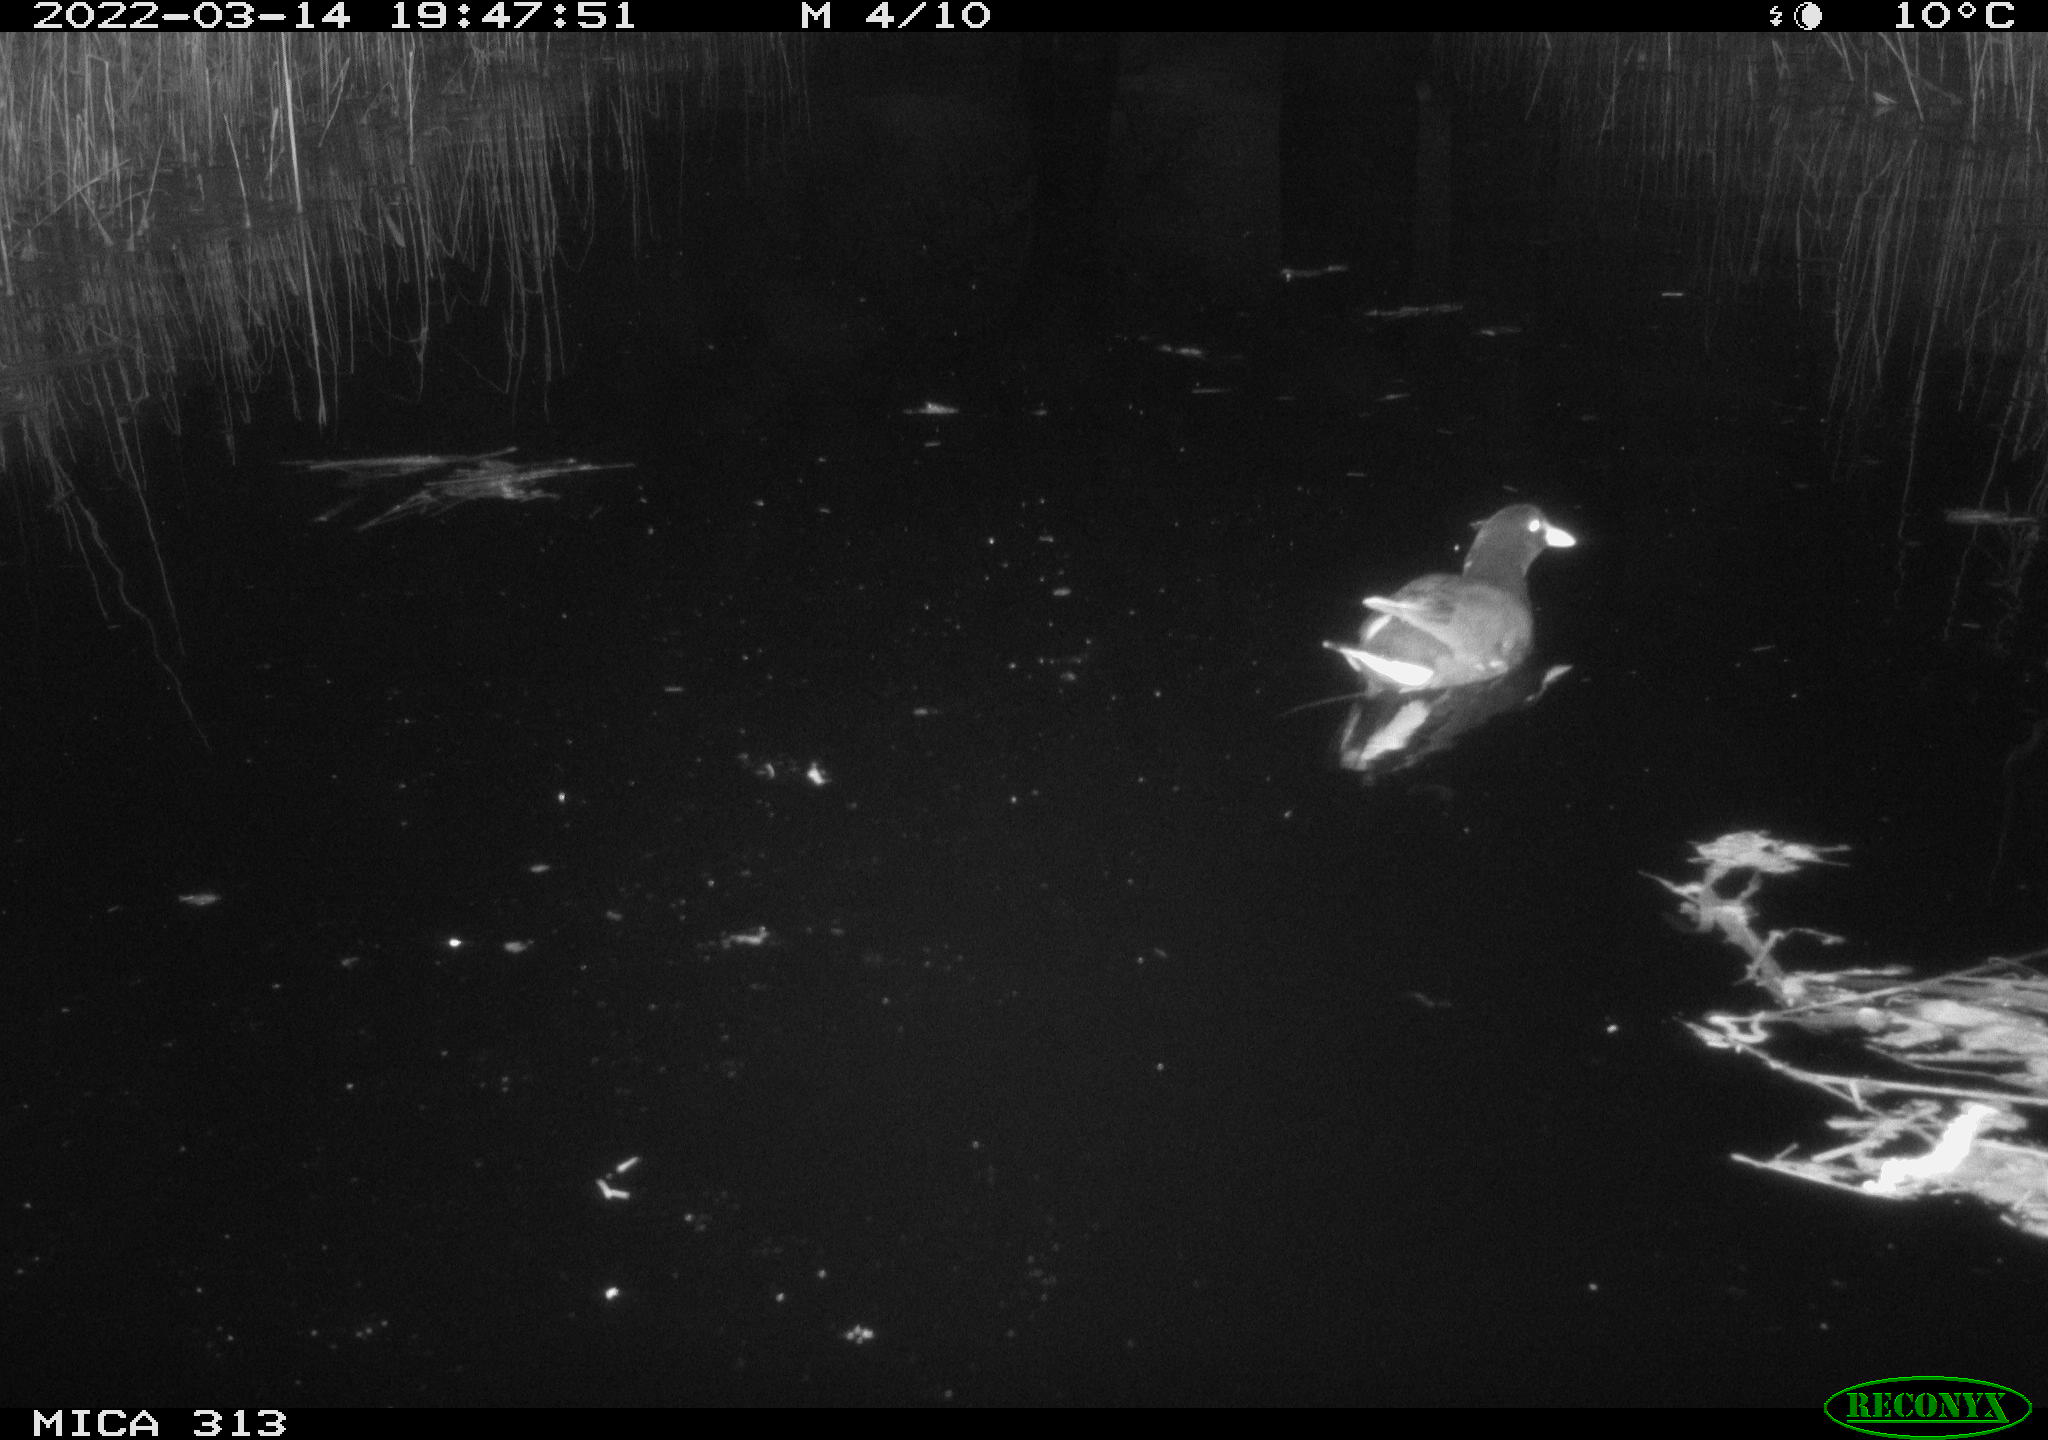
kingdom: Animalia
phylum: Chordata
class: Aves
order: Gruiformes
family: Rallidae
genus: Gallinula
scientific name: Gallinula chloropus
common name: Common moorhen
